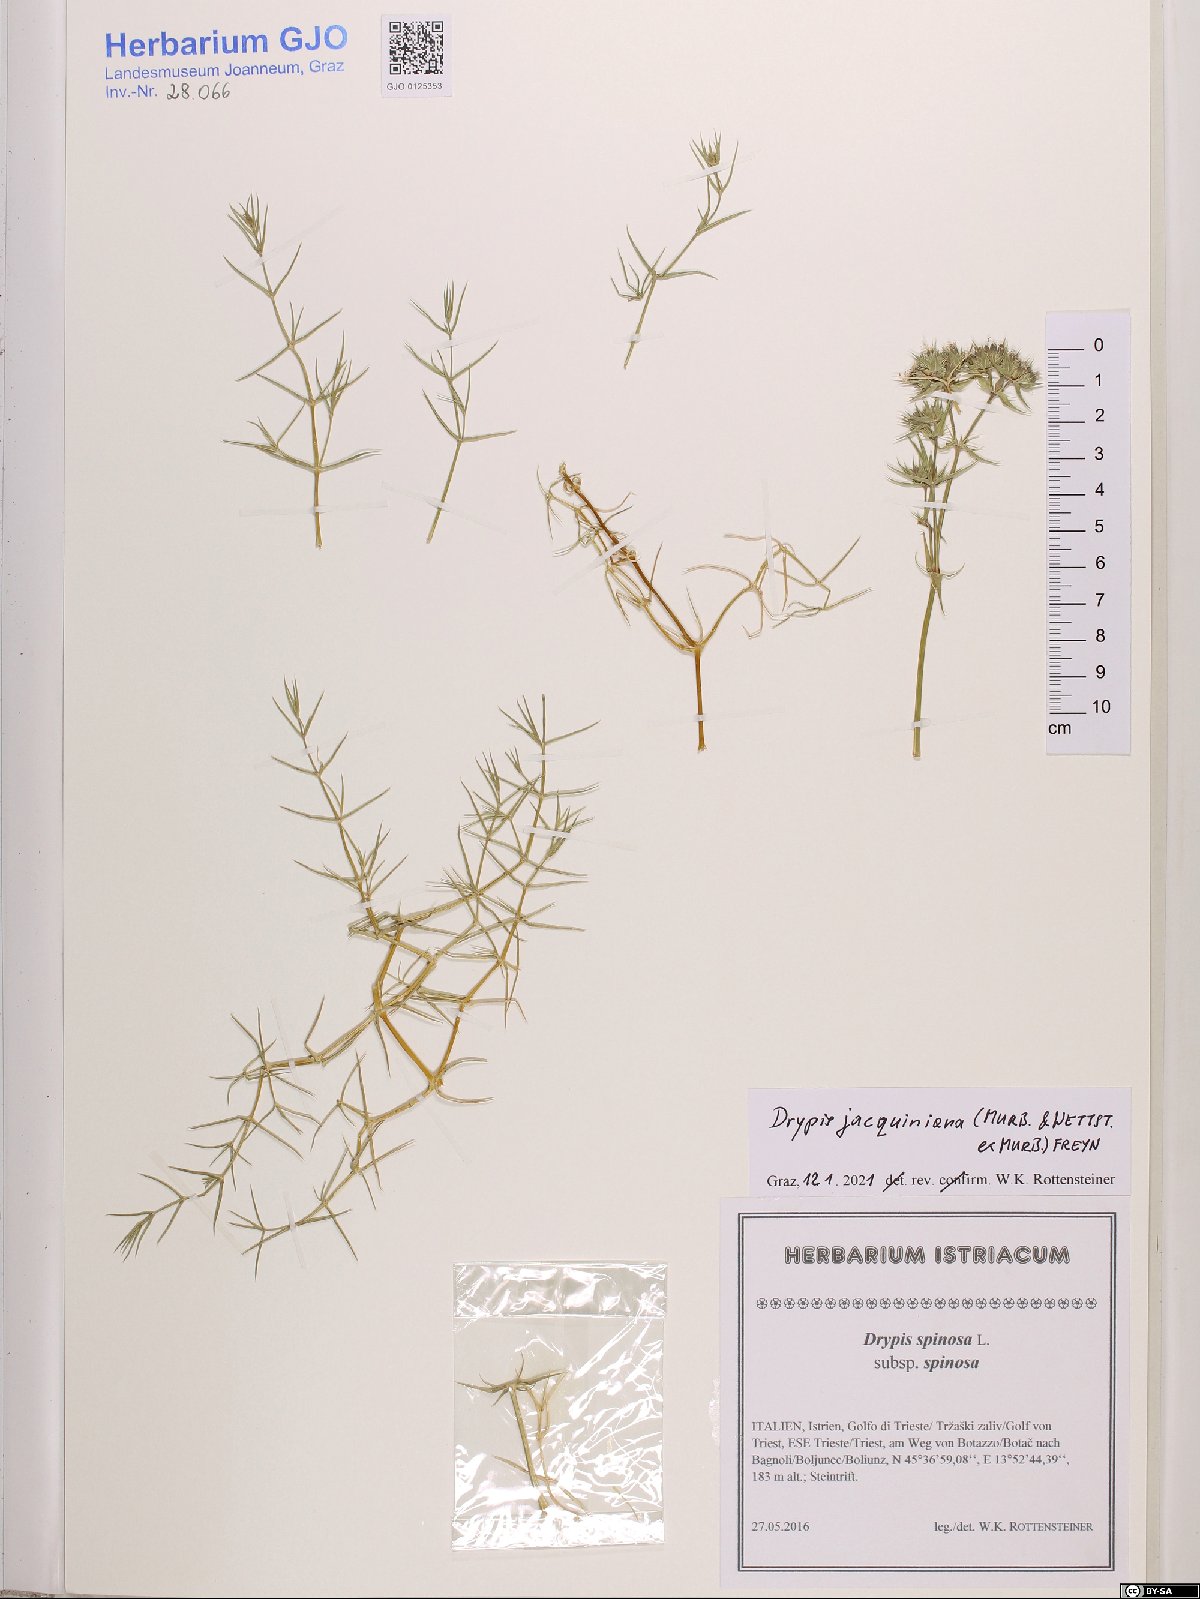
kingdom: Plantae
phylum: Tracheophyta
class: Magnoliopsida
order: Caryophyllales
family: Caryophyllaceae
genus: Drypis
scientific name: Drypis jacquiniana
